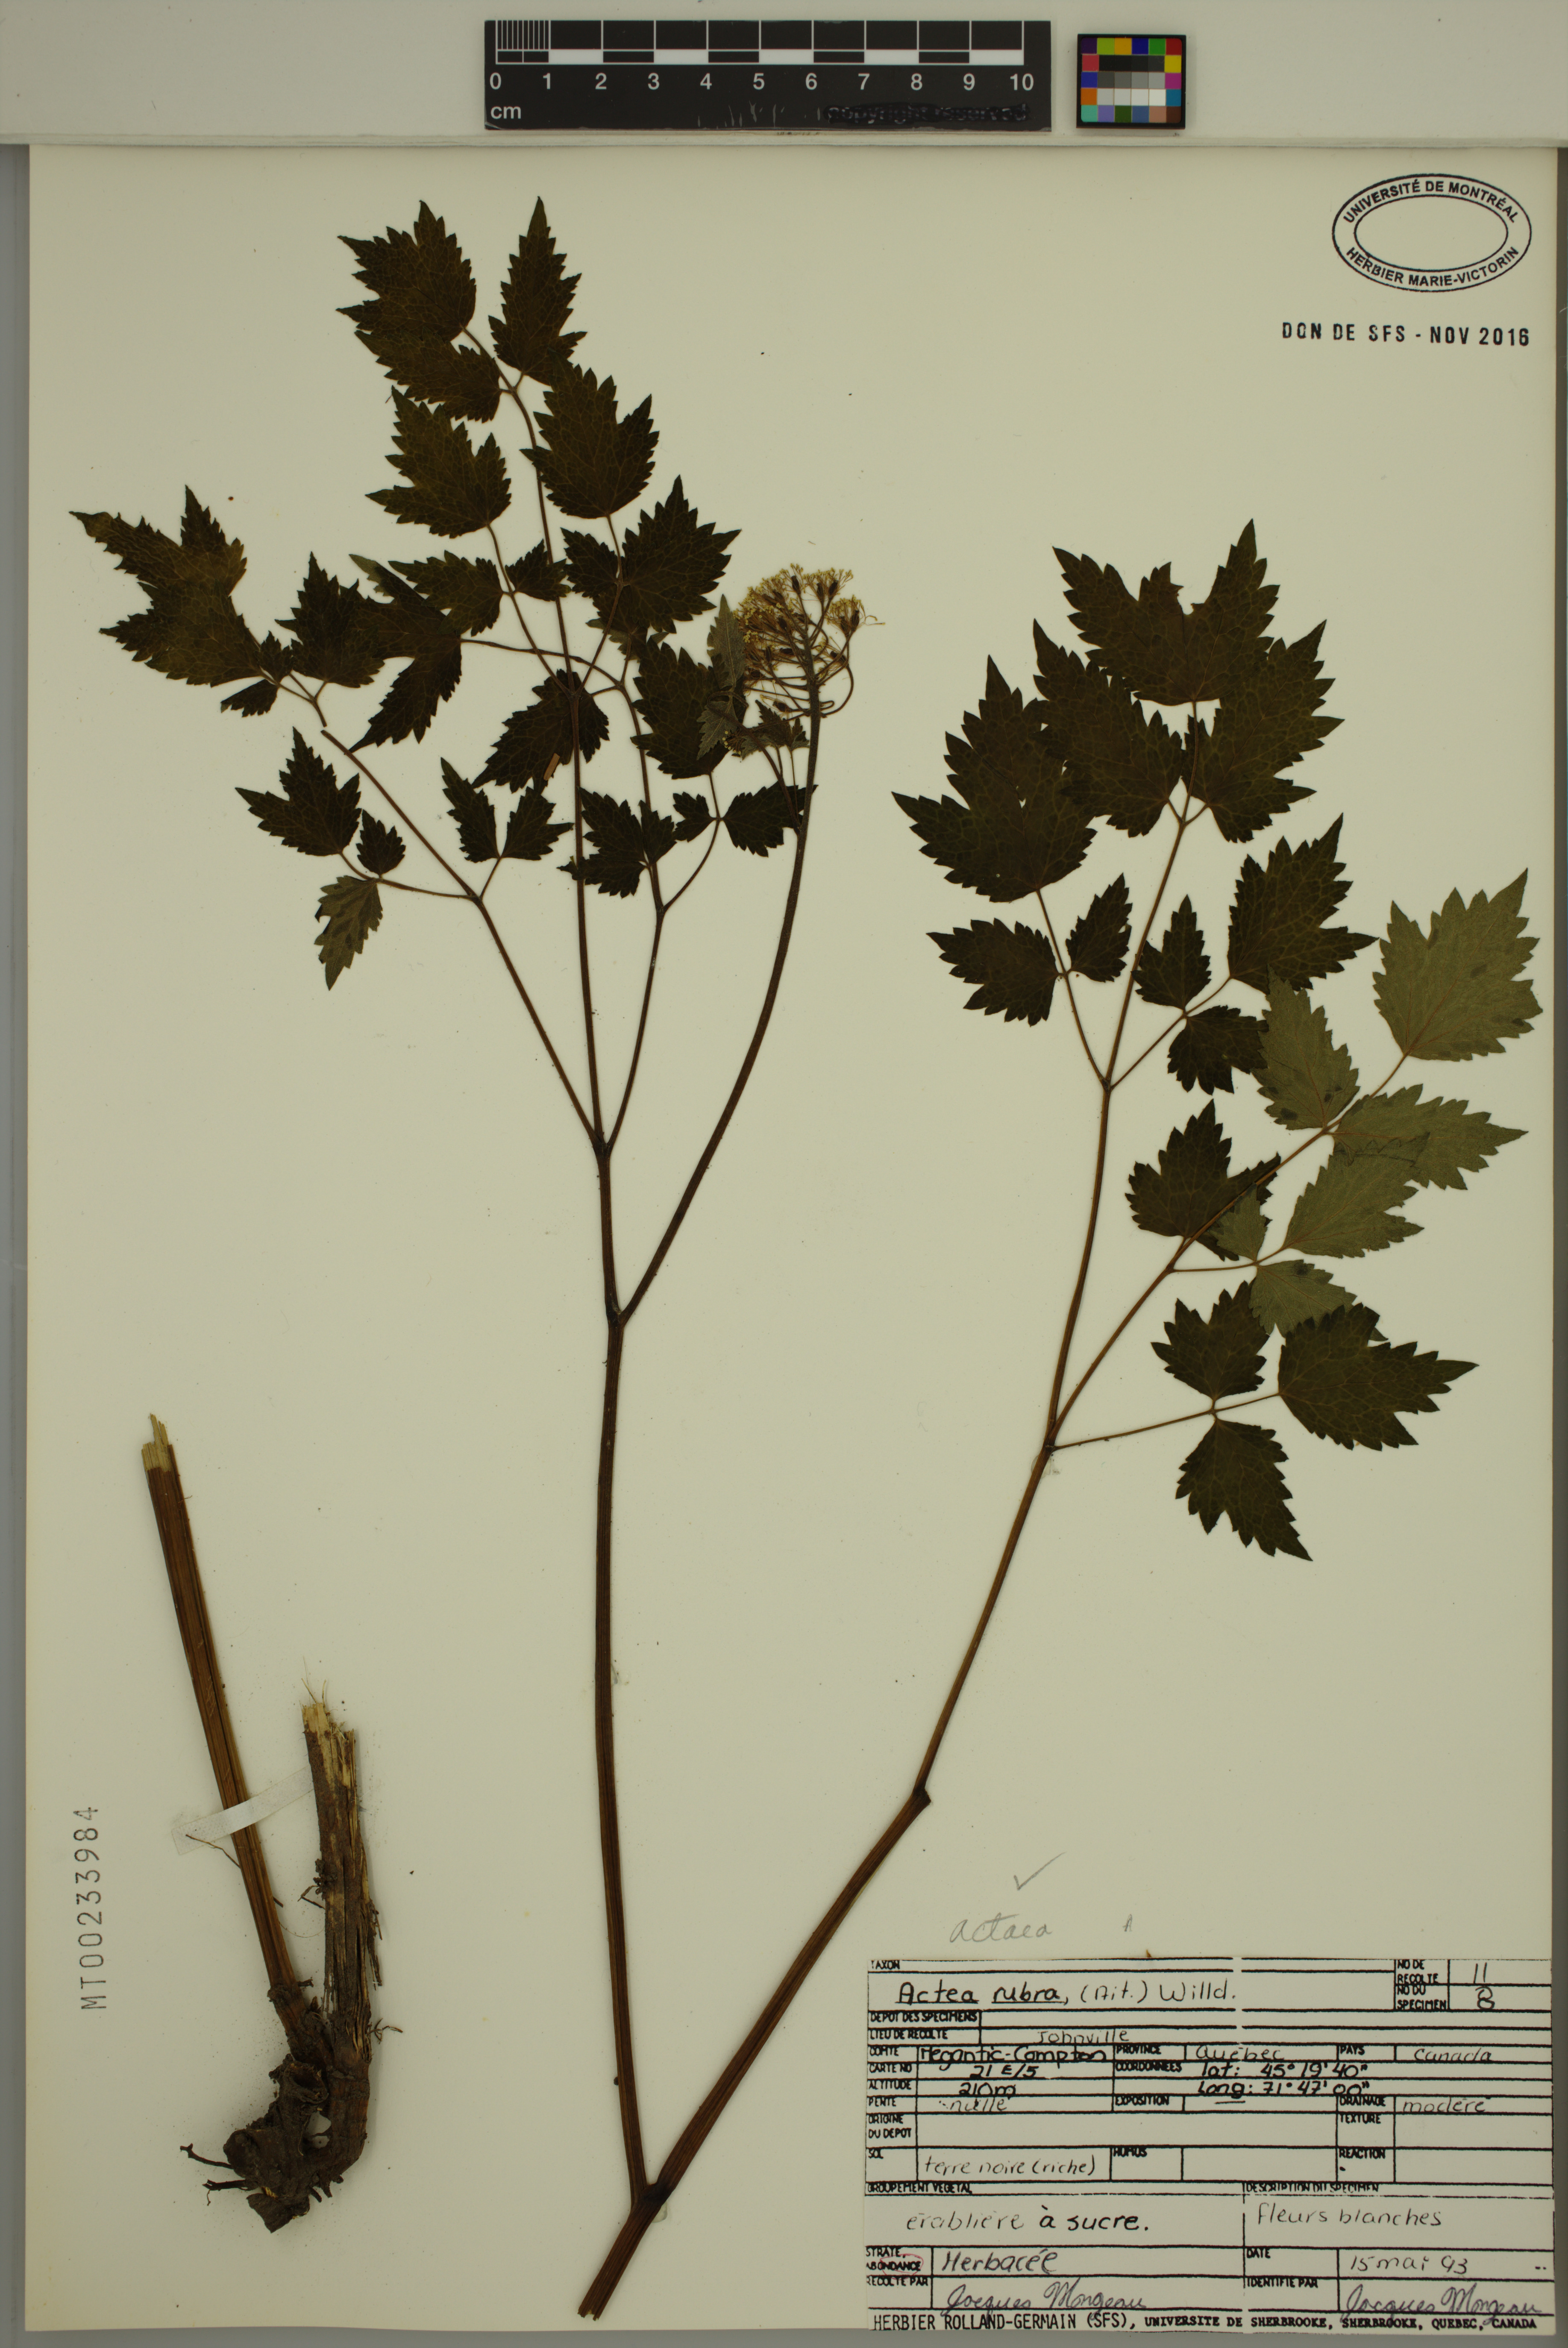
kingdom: Plantae
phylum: Tracheophyta
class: Magnoliopsida
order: Ranunculales
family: Ranunculaceae
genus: Actaea
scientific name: Actaea rubra
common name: Red baneberry
